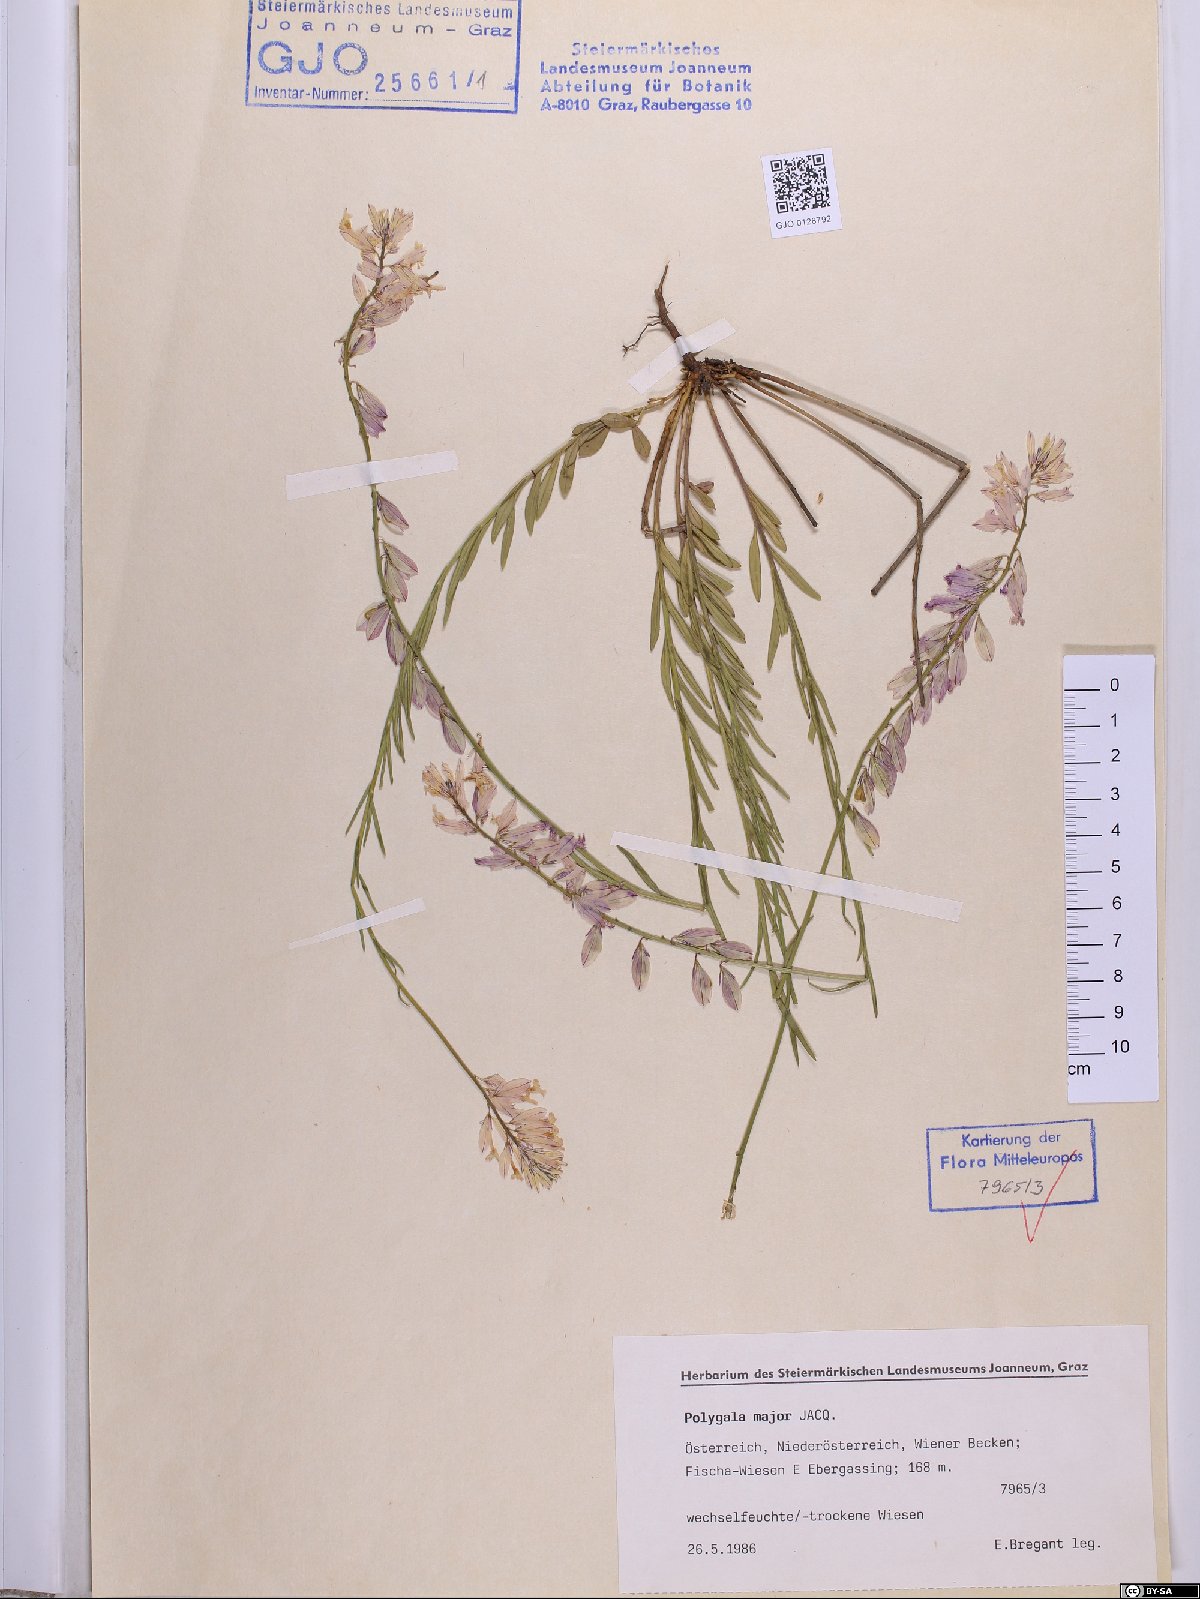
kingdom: Plantae
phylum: Tracheophyta
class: Magnoliopsida
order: Fabales
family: Polygalaceae
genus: Polygala
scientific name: Polygala major
